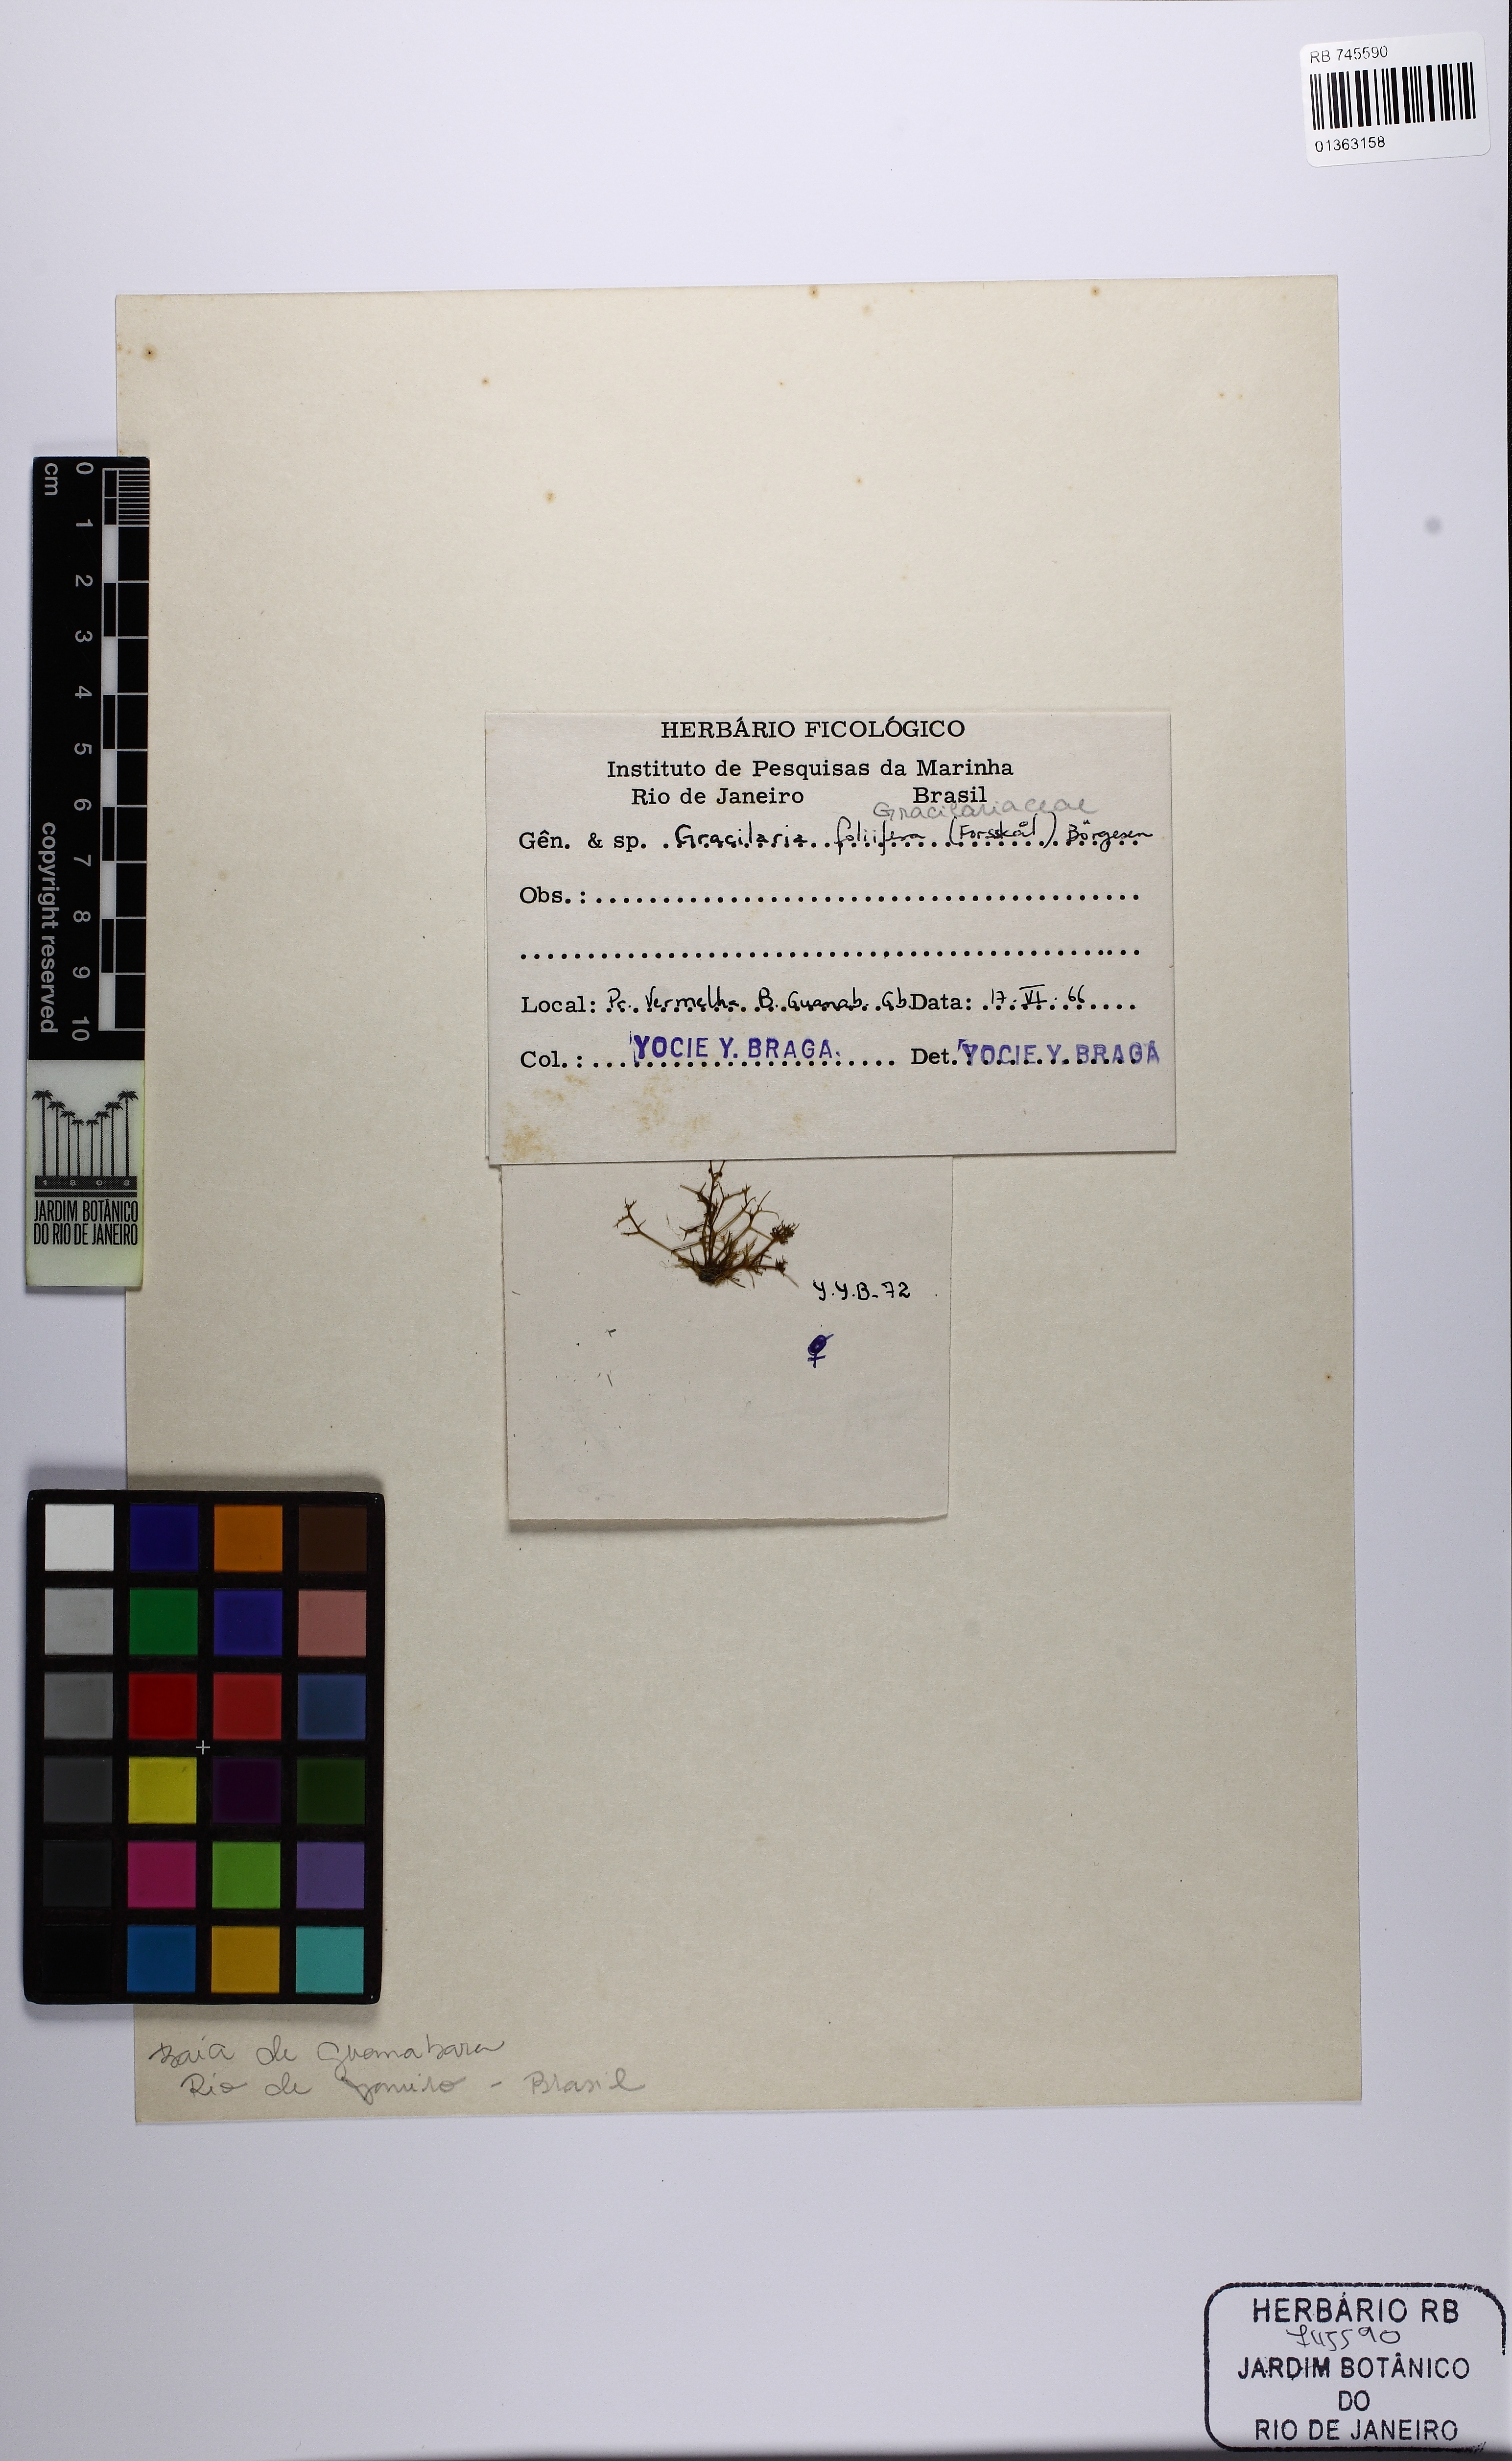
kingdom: Plantae
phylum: Rhodophyta
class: Florideophyceae
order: Gracilariales
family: Gracilariaceae
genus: Gracilaria
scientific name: Gracilaria foliifera
